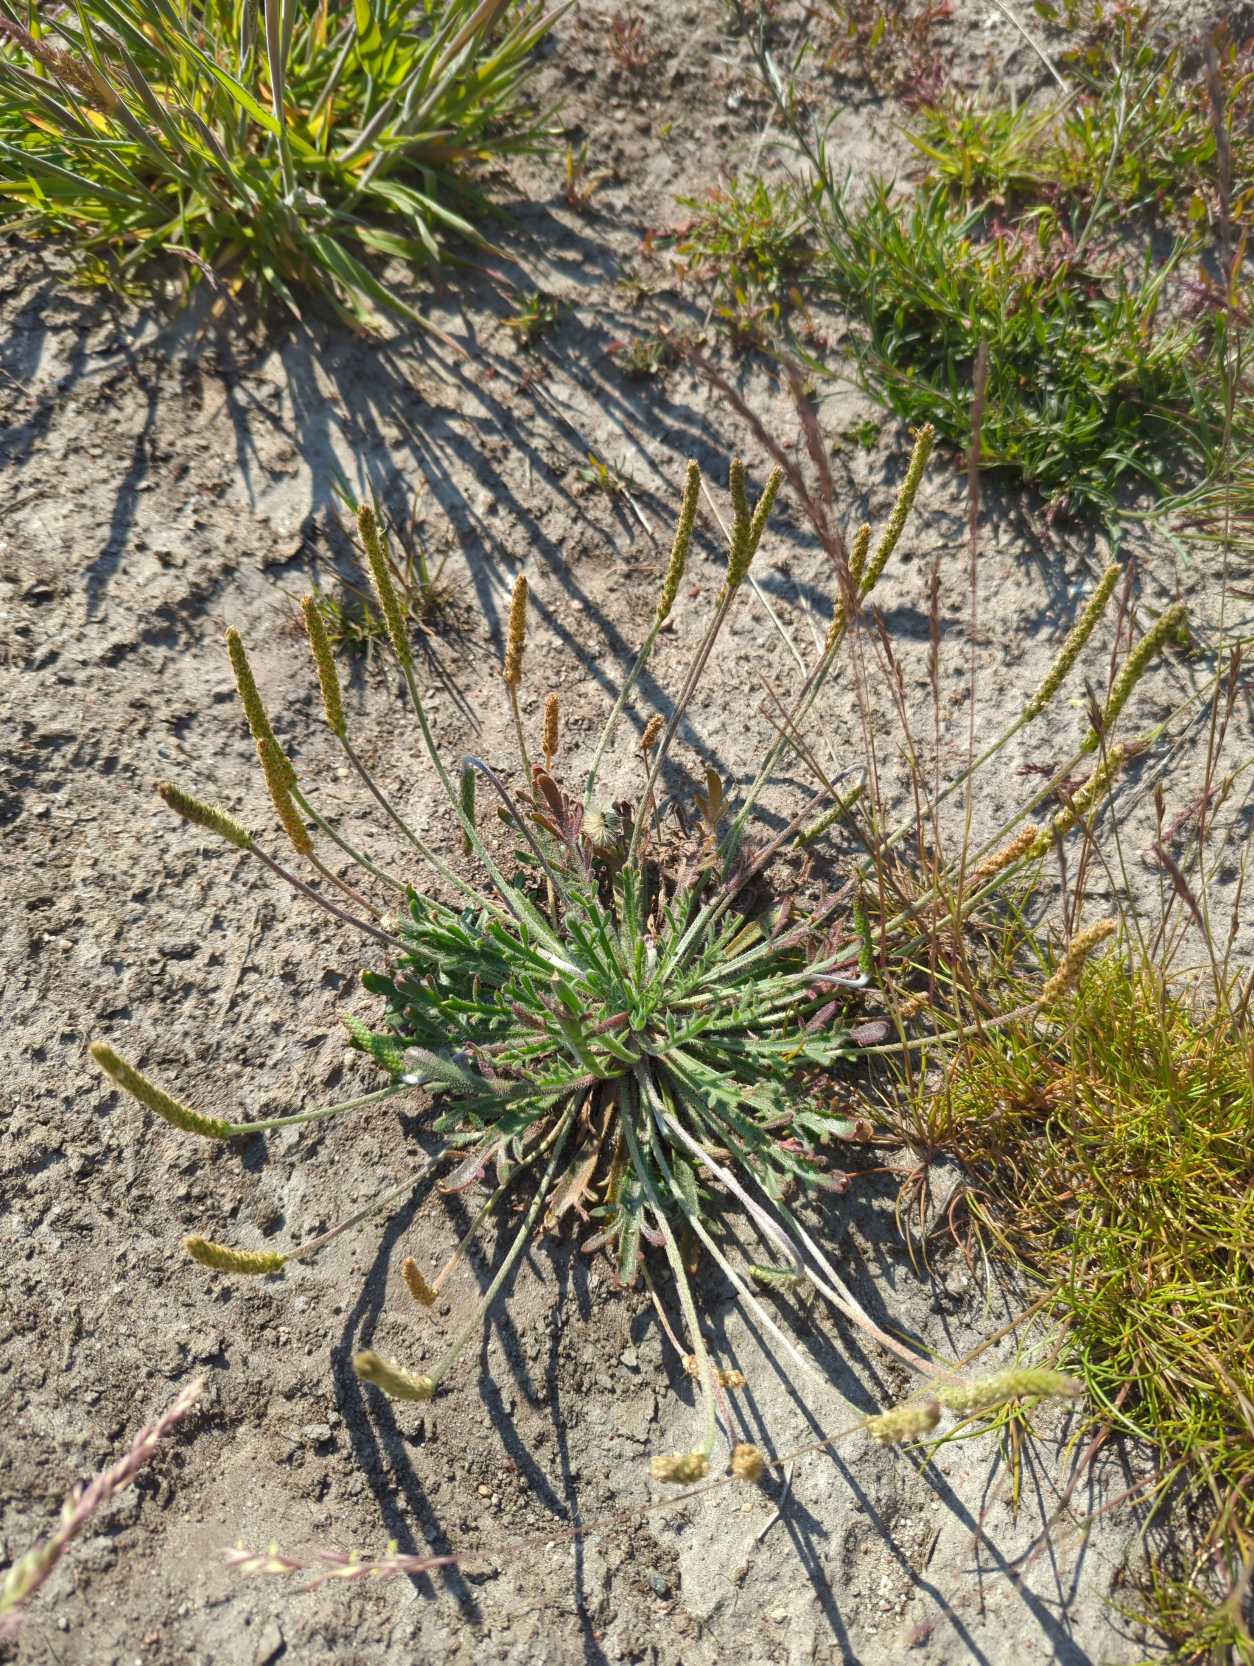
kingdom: Plantae
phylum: Tracheophyta
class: Magnoliopsida
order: Lamiales
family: Plantaginaceae
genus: Plantago
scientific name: Plantago coronopus
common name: Fliget vejbred
